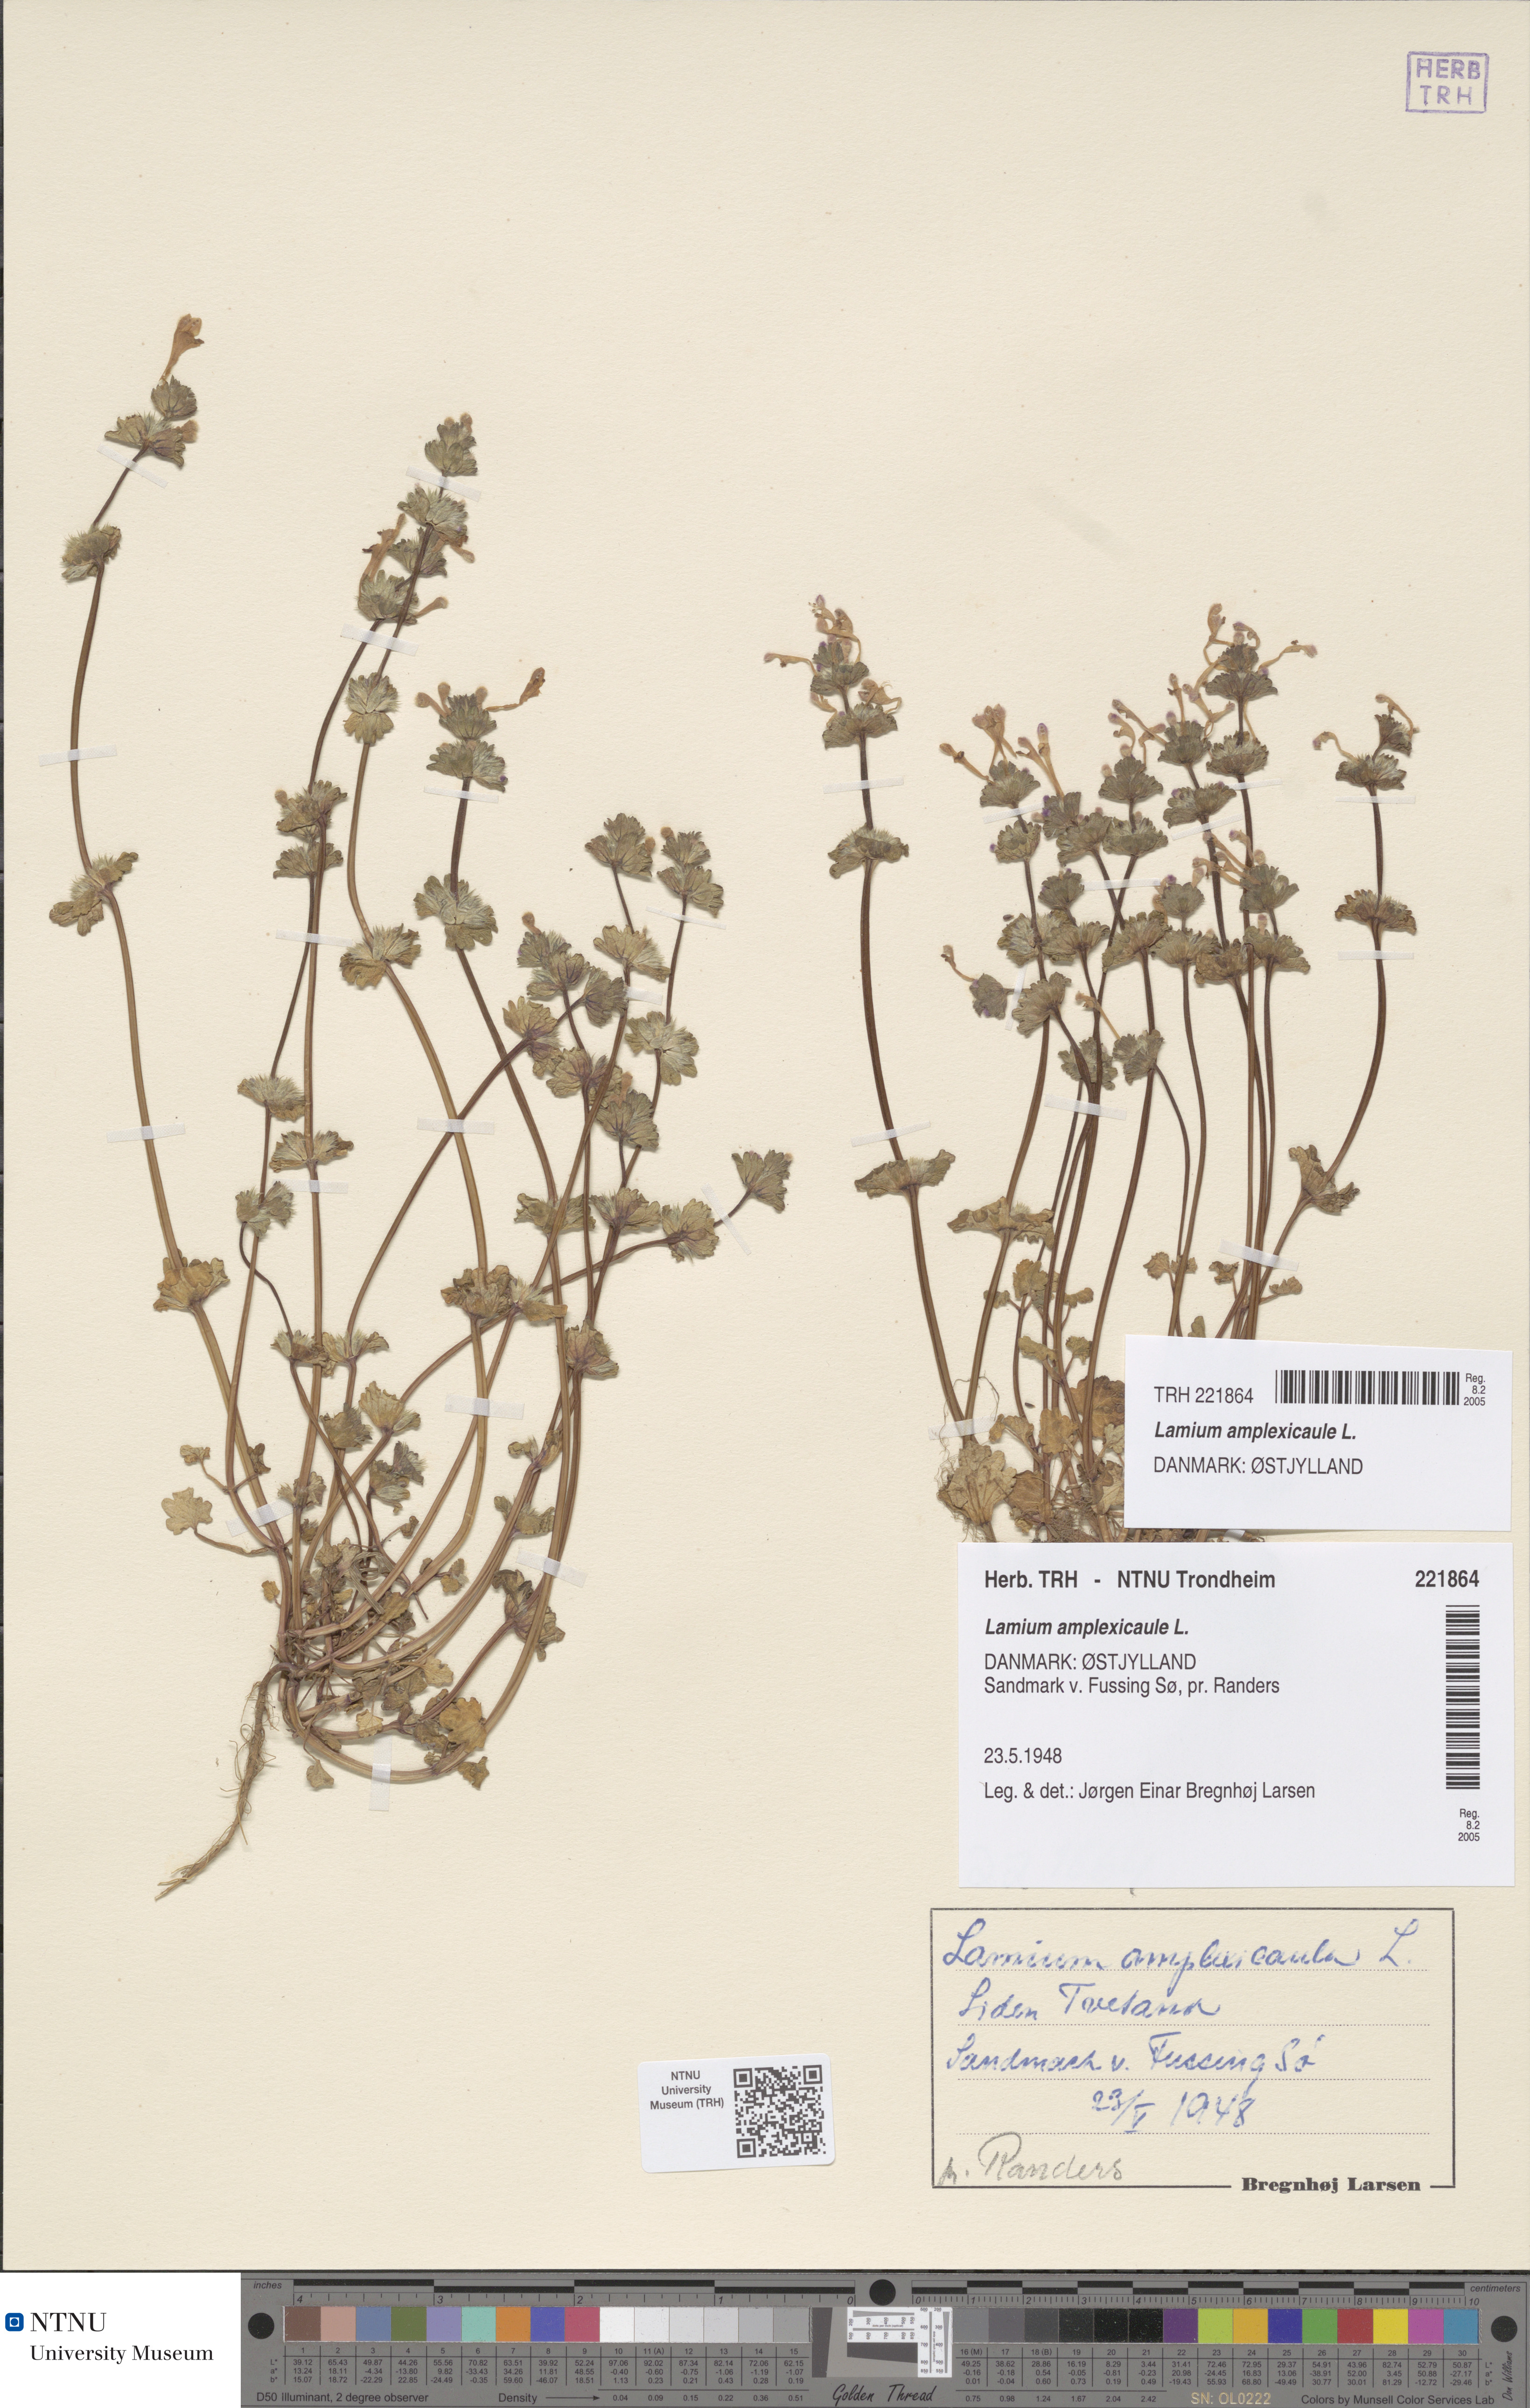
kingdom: Plantae
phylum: Tracheophyta
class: Magnoliopsida
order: Lamiales
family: Lamiaceae
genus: Lamium
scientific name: Lamium amplexicaule
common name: Henbit dead-nettle
